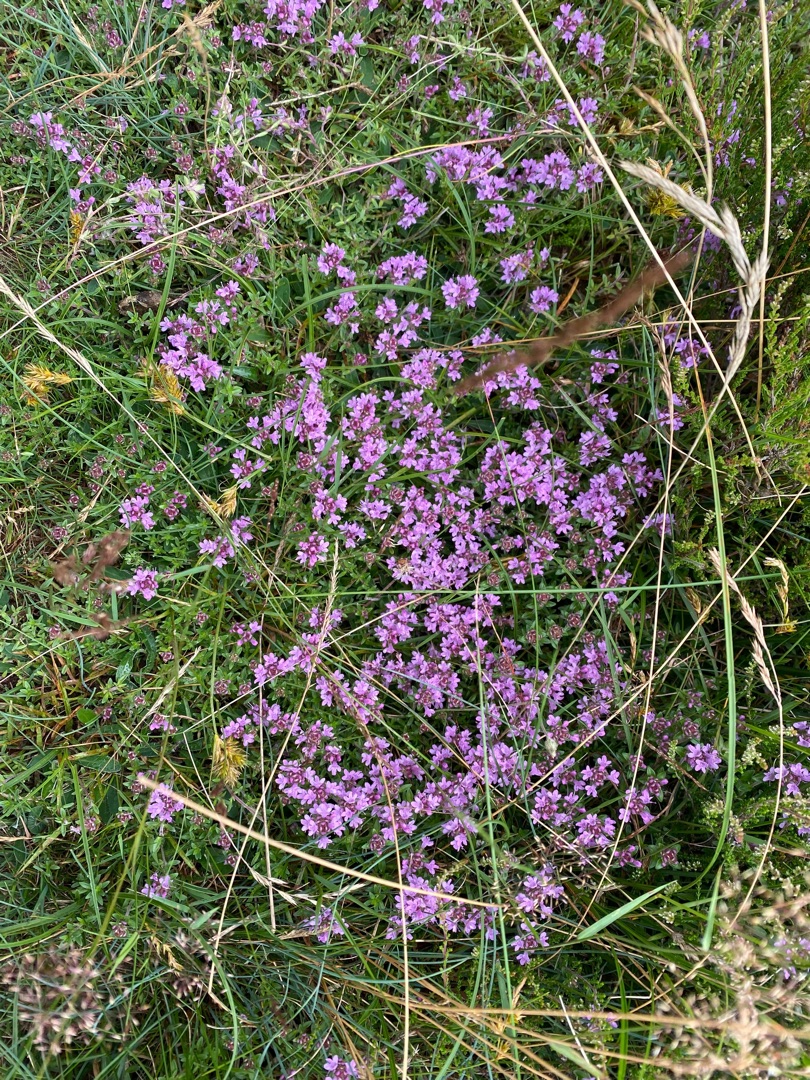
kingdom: Plantae
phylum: Tracheophyta
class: Magnoliopsida
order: Lamiales
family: Lamiaceae
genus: Thymus
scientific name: Thymus serpyllum
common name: Smalbladet timian
